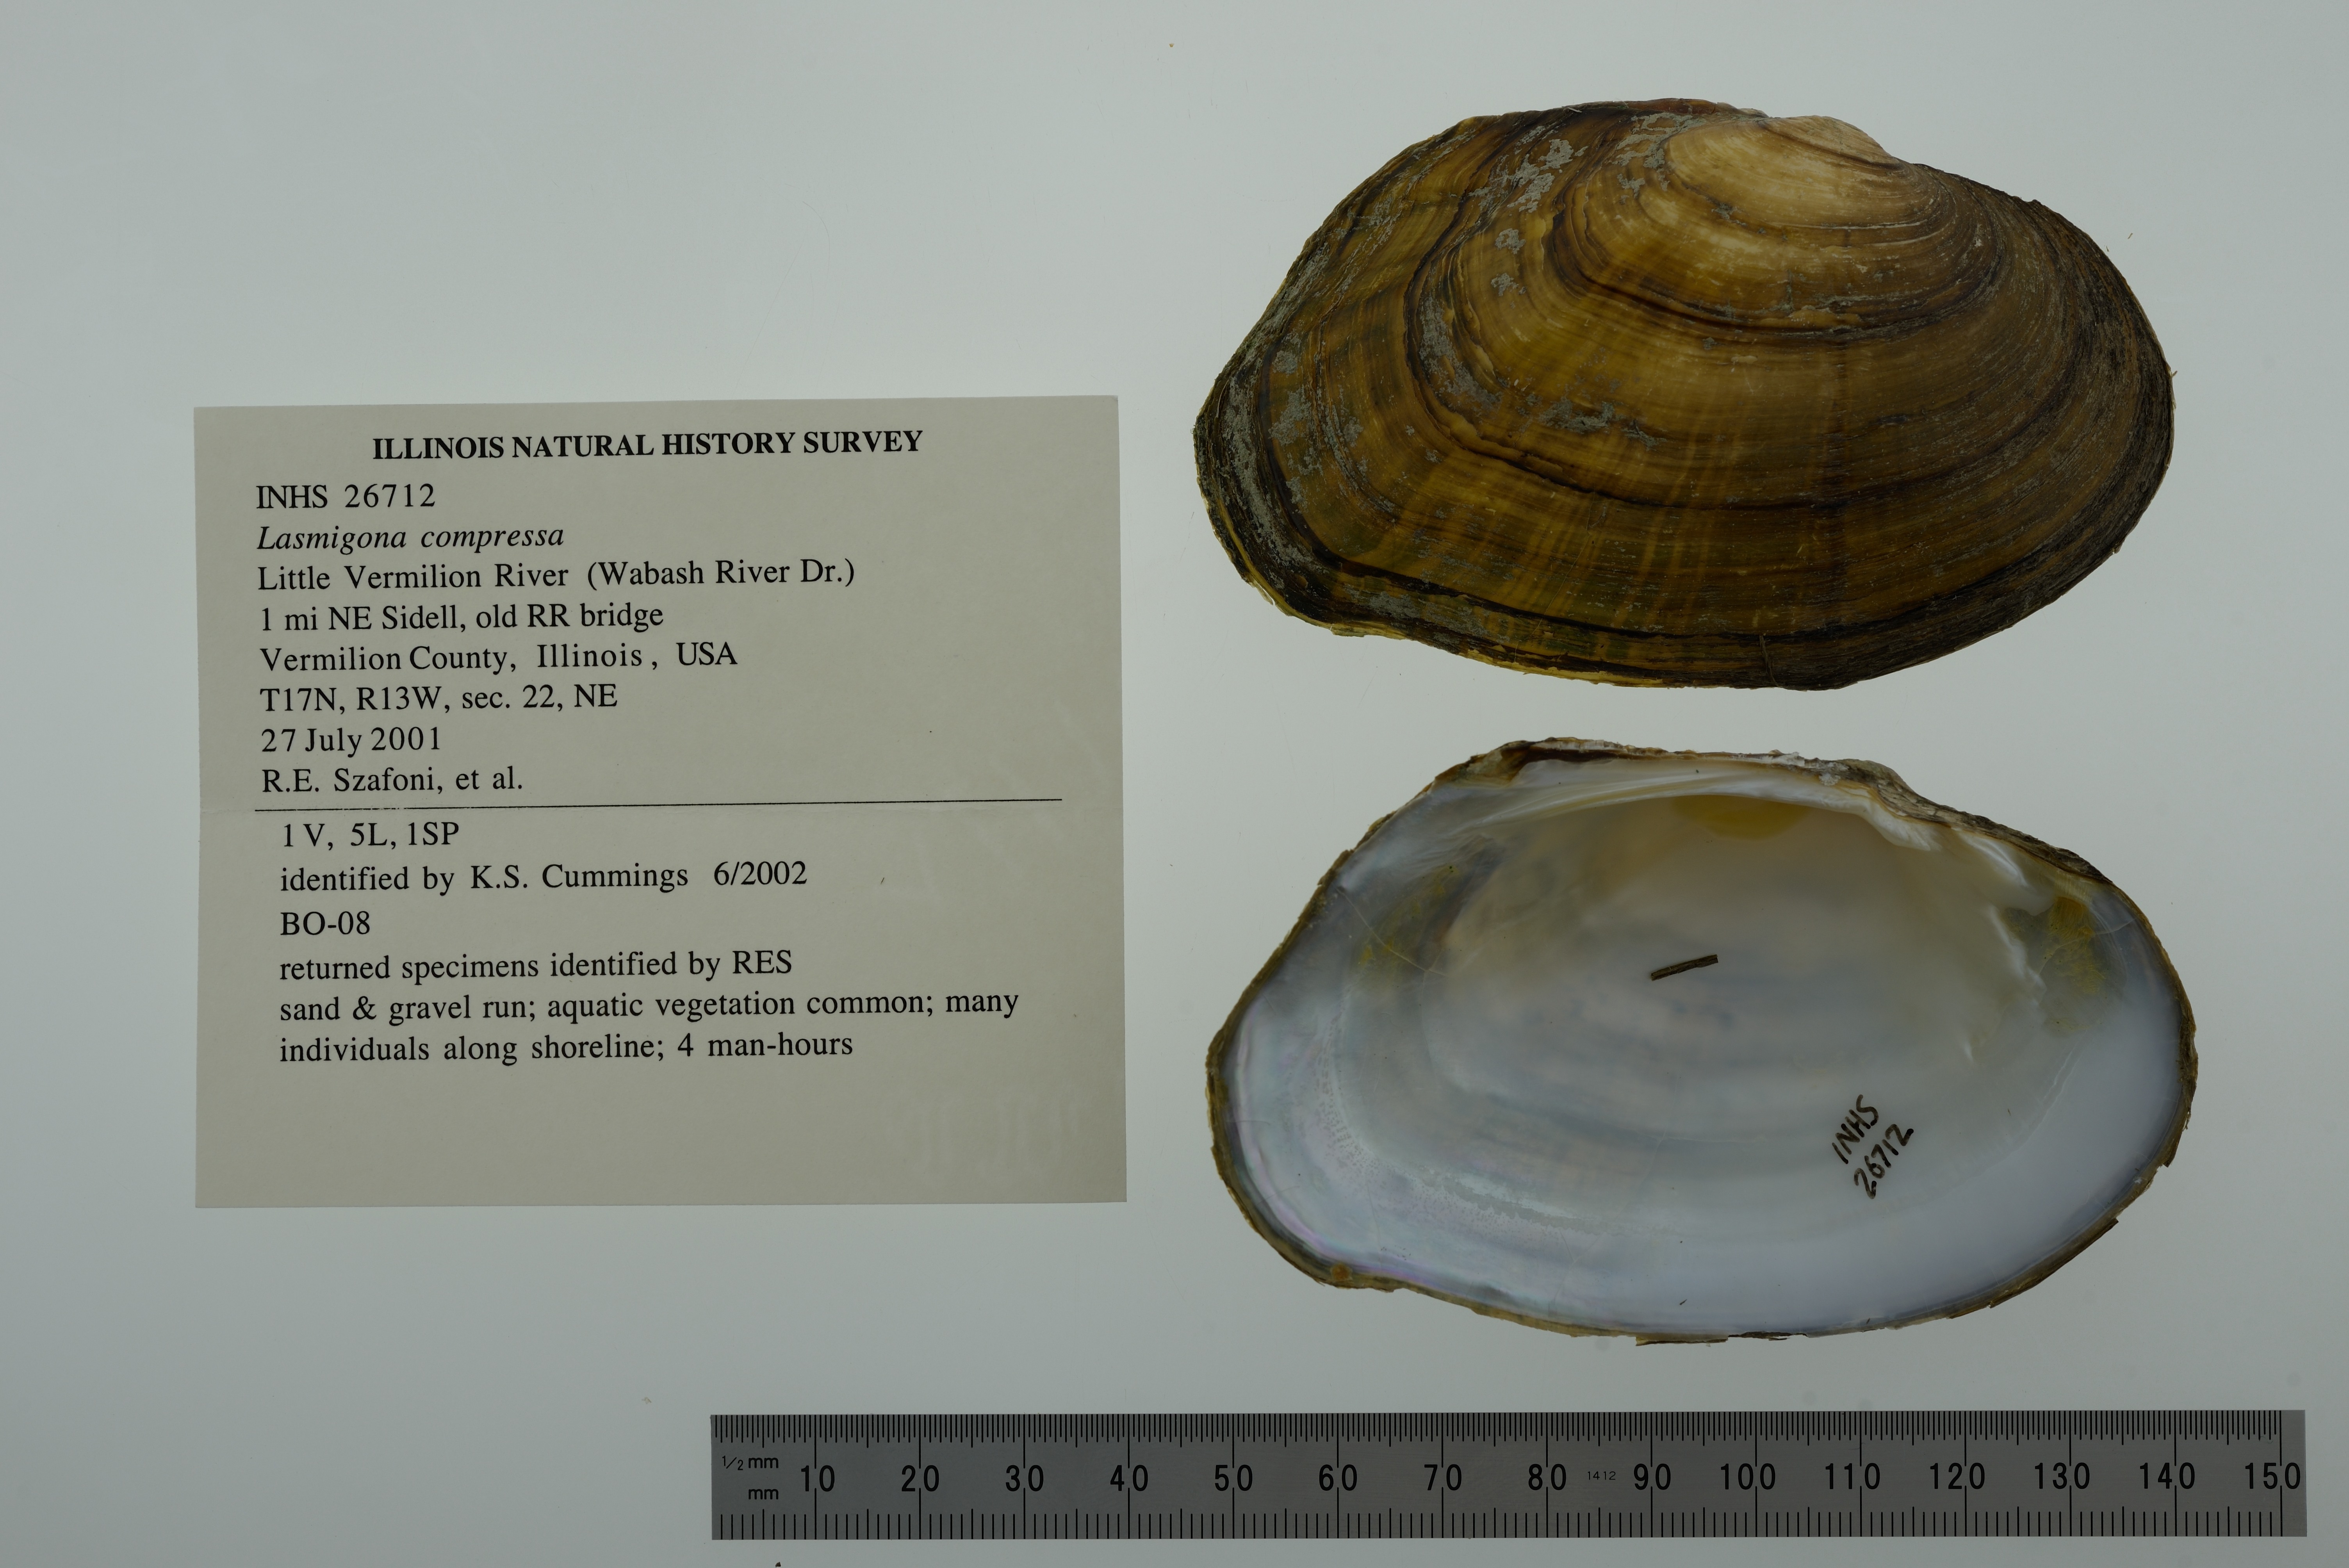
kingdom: Animalia
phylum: Mollusca
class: Bivalvia
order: Unionida
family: Unionidae
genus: Lasmigona
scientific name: Lasmigona compressa
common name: Creek heelsplitter
